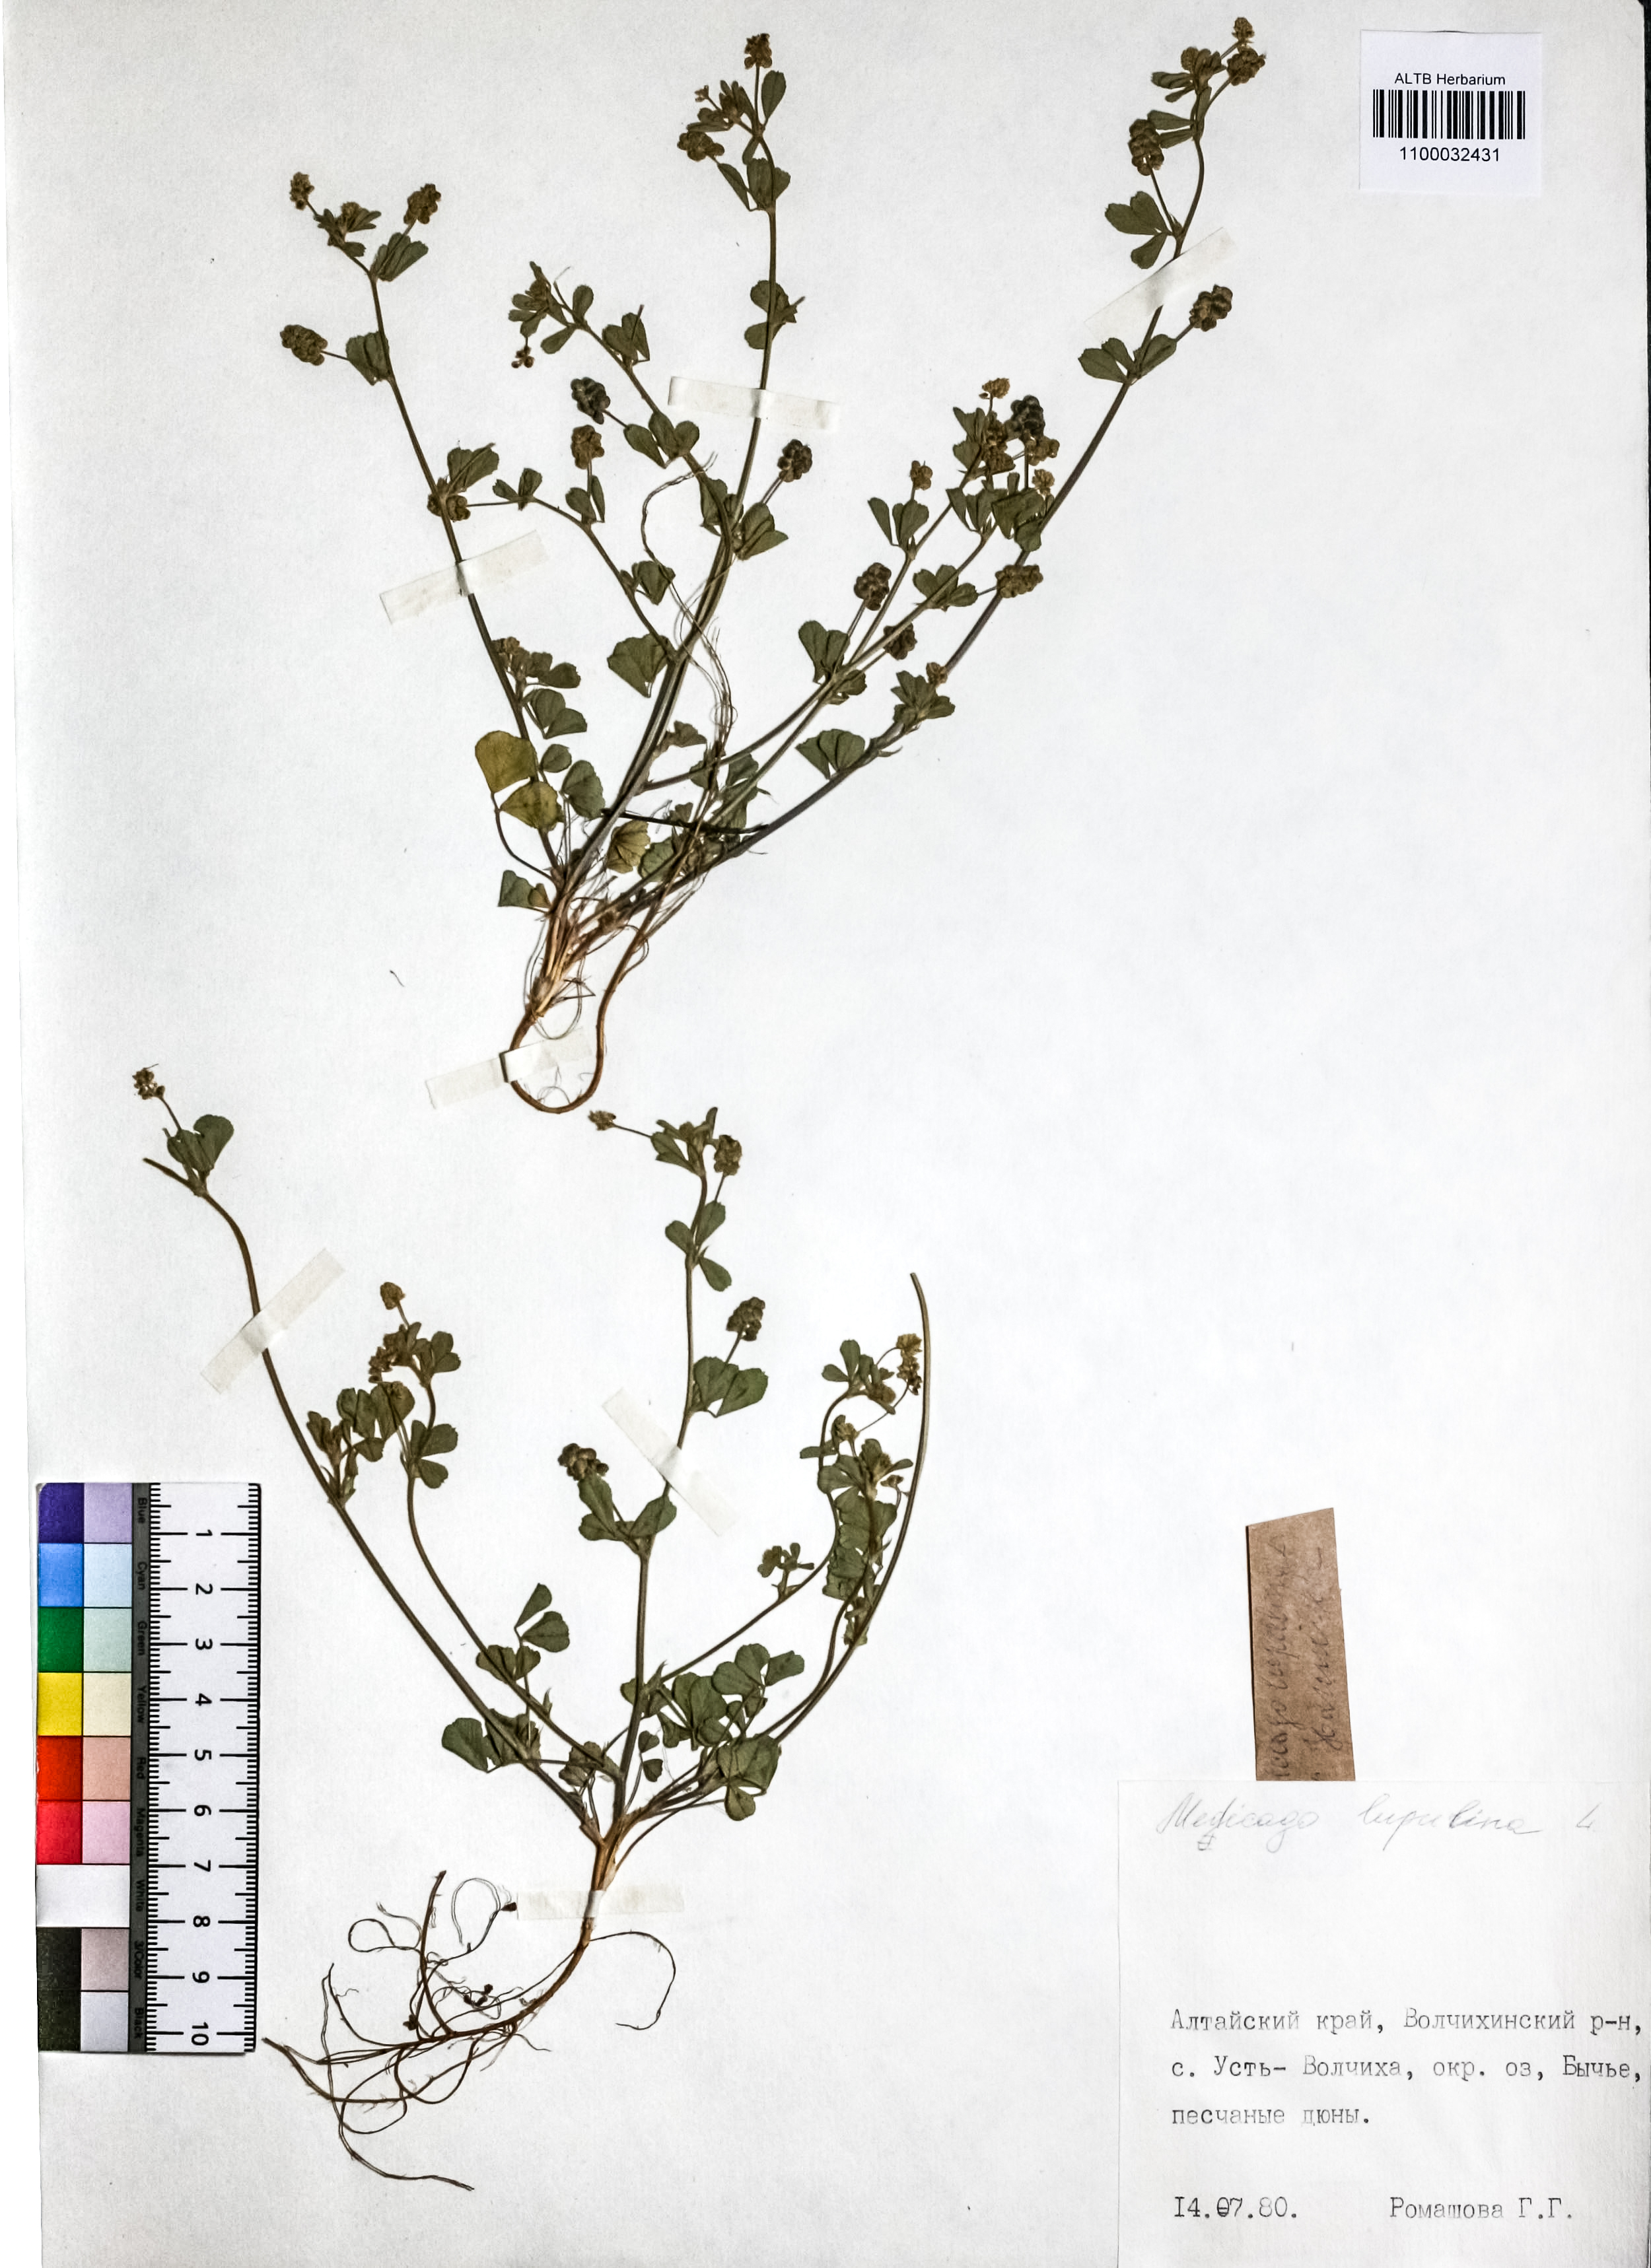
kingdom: Plantae
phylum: Tracheophyta
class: Magnoliopsida
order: Fabales
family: Fabaceae
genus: Medicago
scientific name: Medicago lupulina
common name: Black medick
